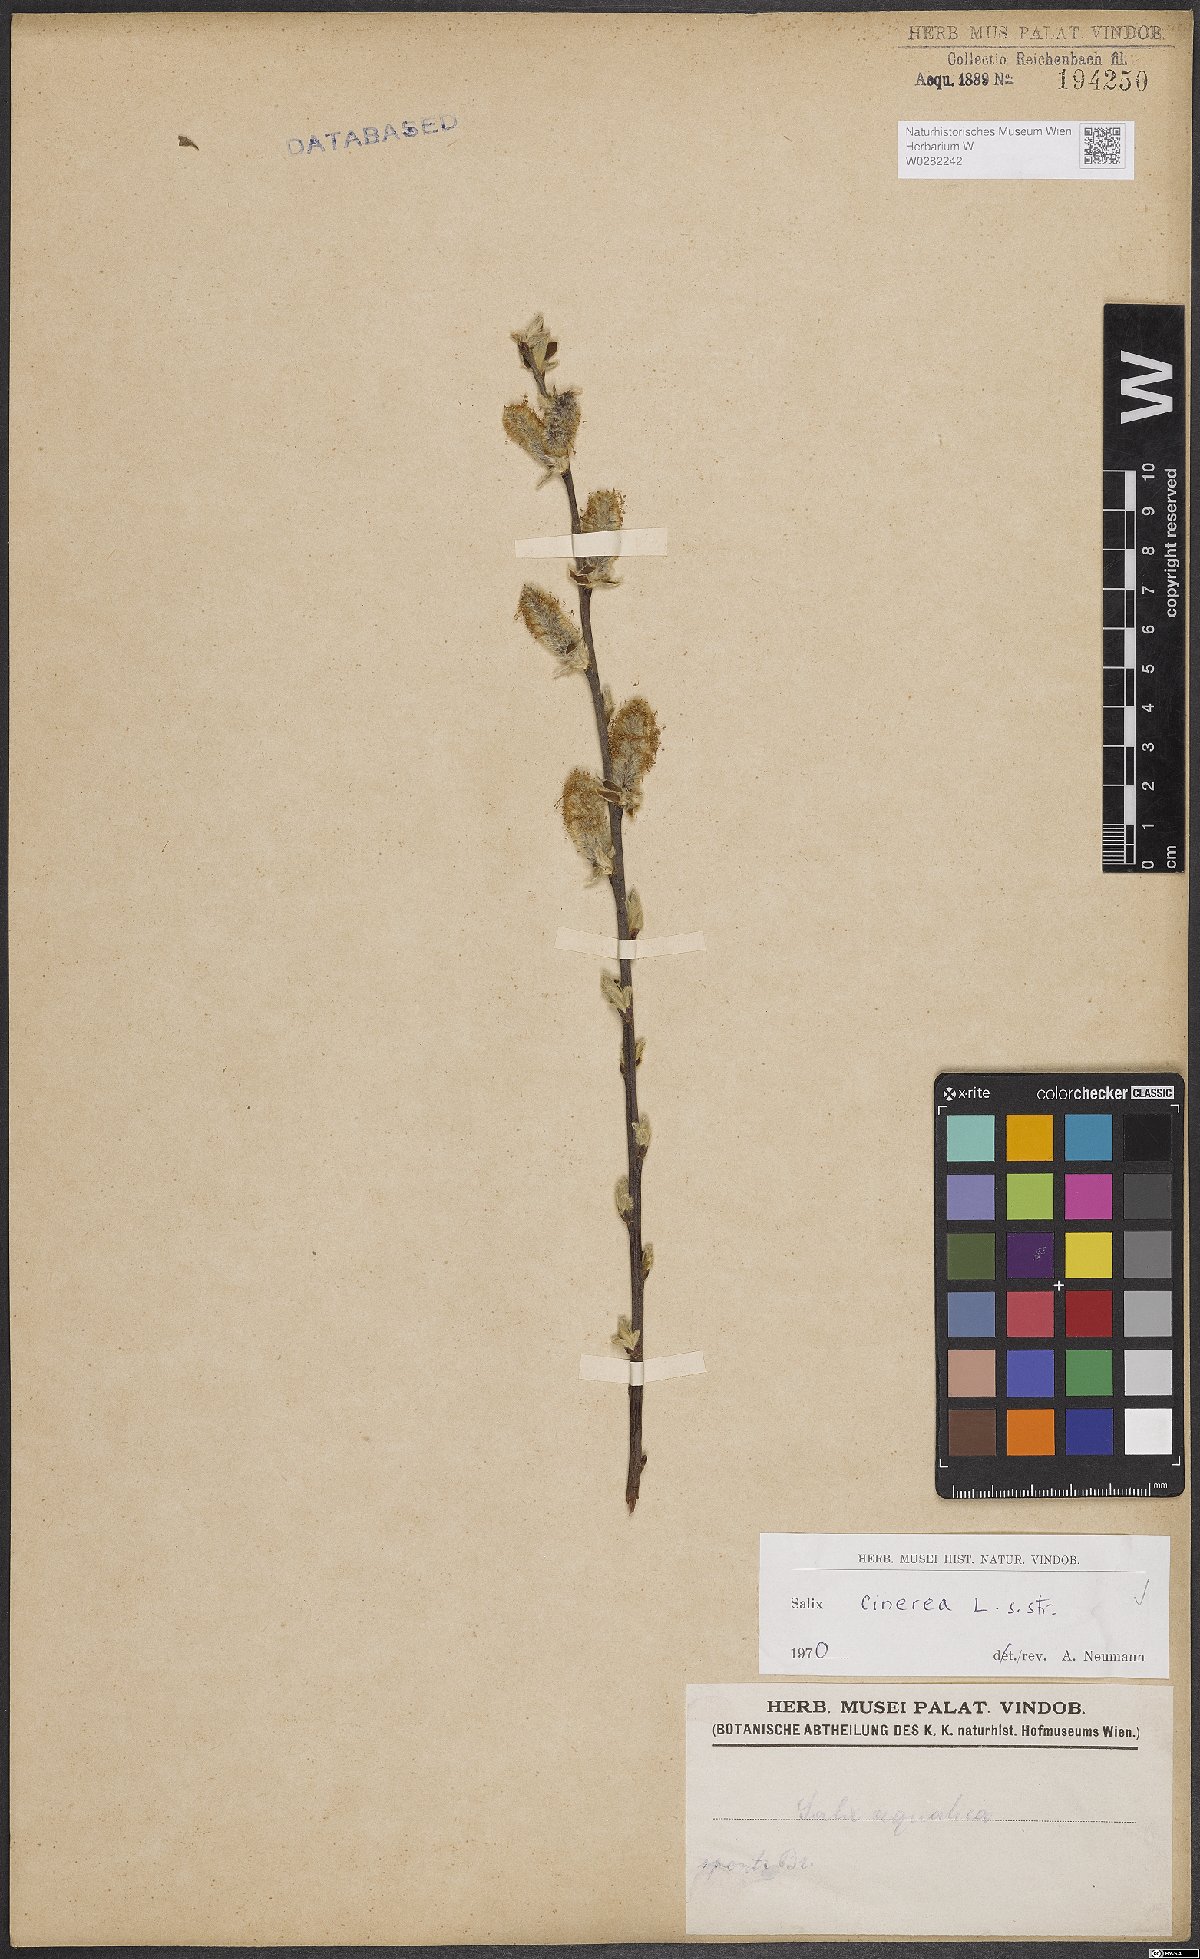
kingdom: Plantae
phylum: Tracheophyta
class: Magnoliopsida
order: Malpighiales
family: Salicaceae
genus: Salix
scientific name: Salix cinerea
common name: Common sallow
